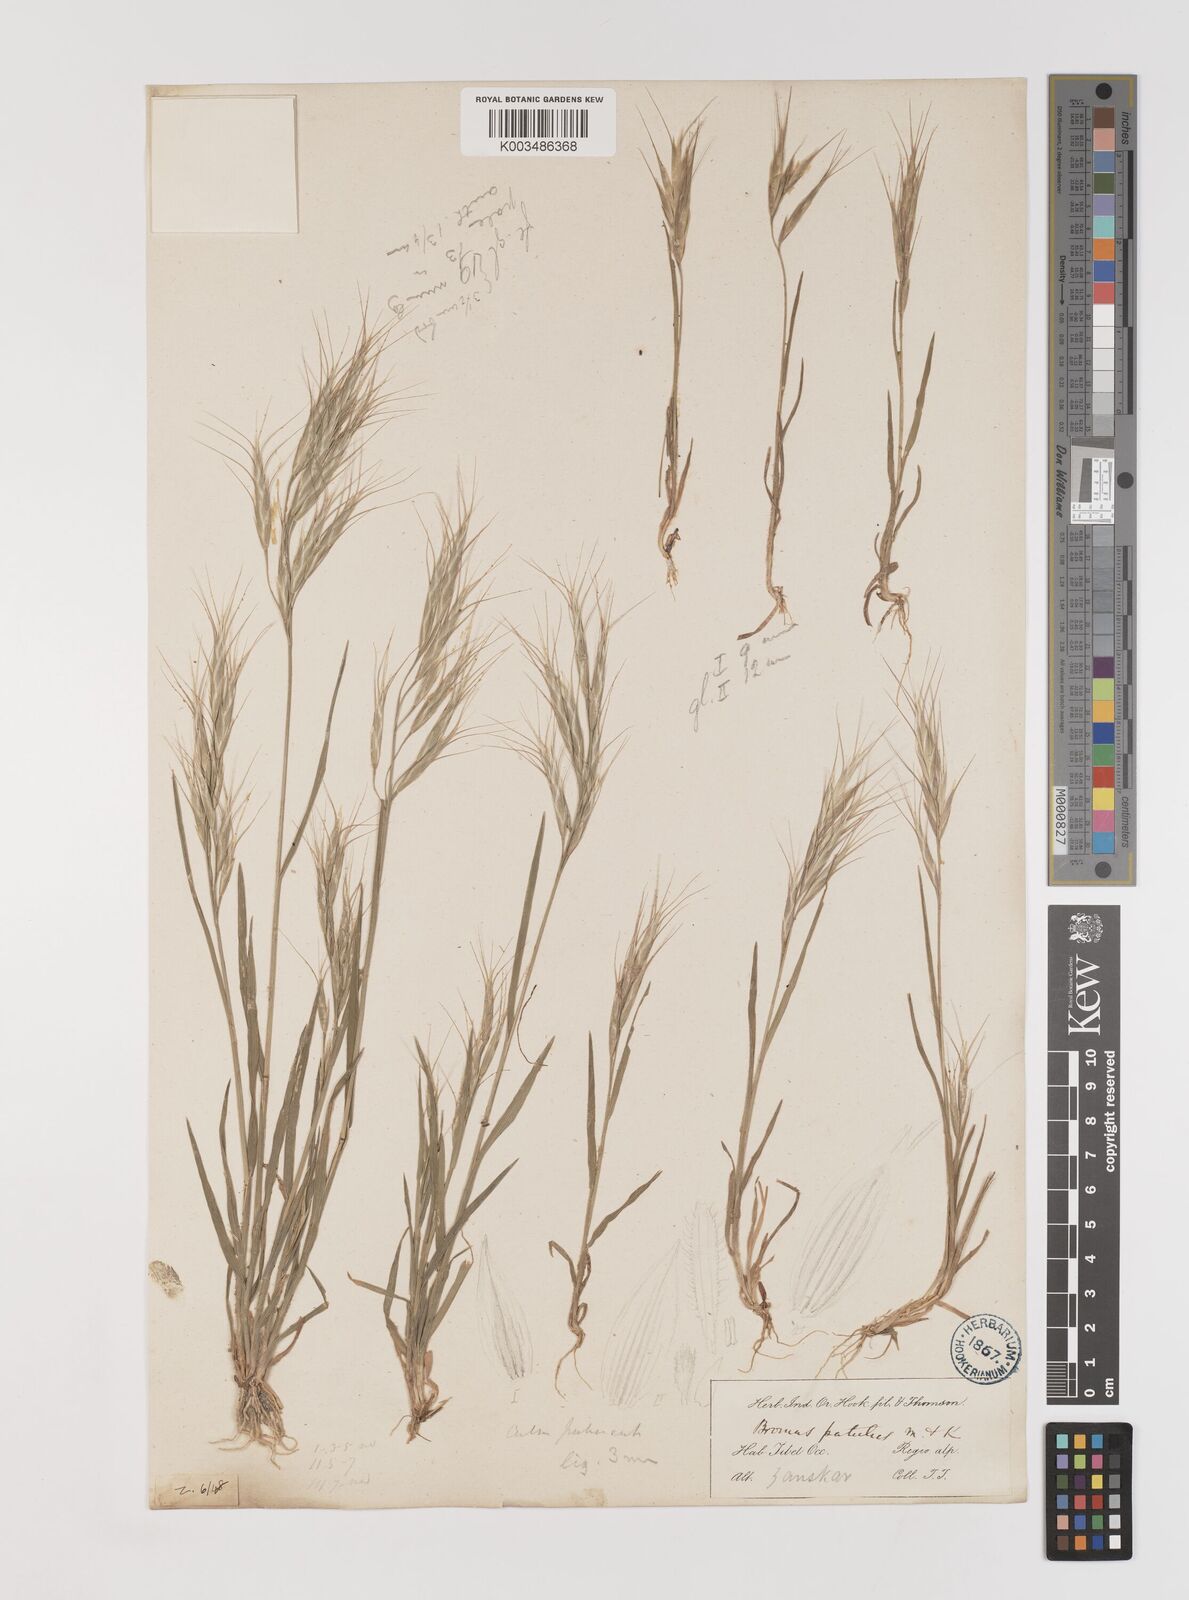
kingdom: Plantae
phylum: Tracheophyta
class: Liliopsida
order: Poales
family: Poaceae
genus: Bromus
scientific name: Bromus oxyodon
